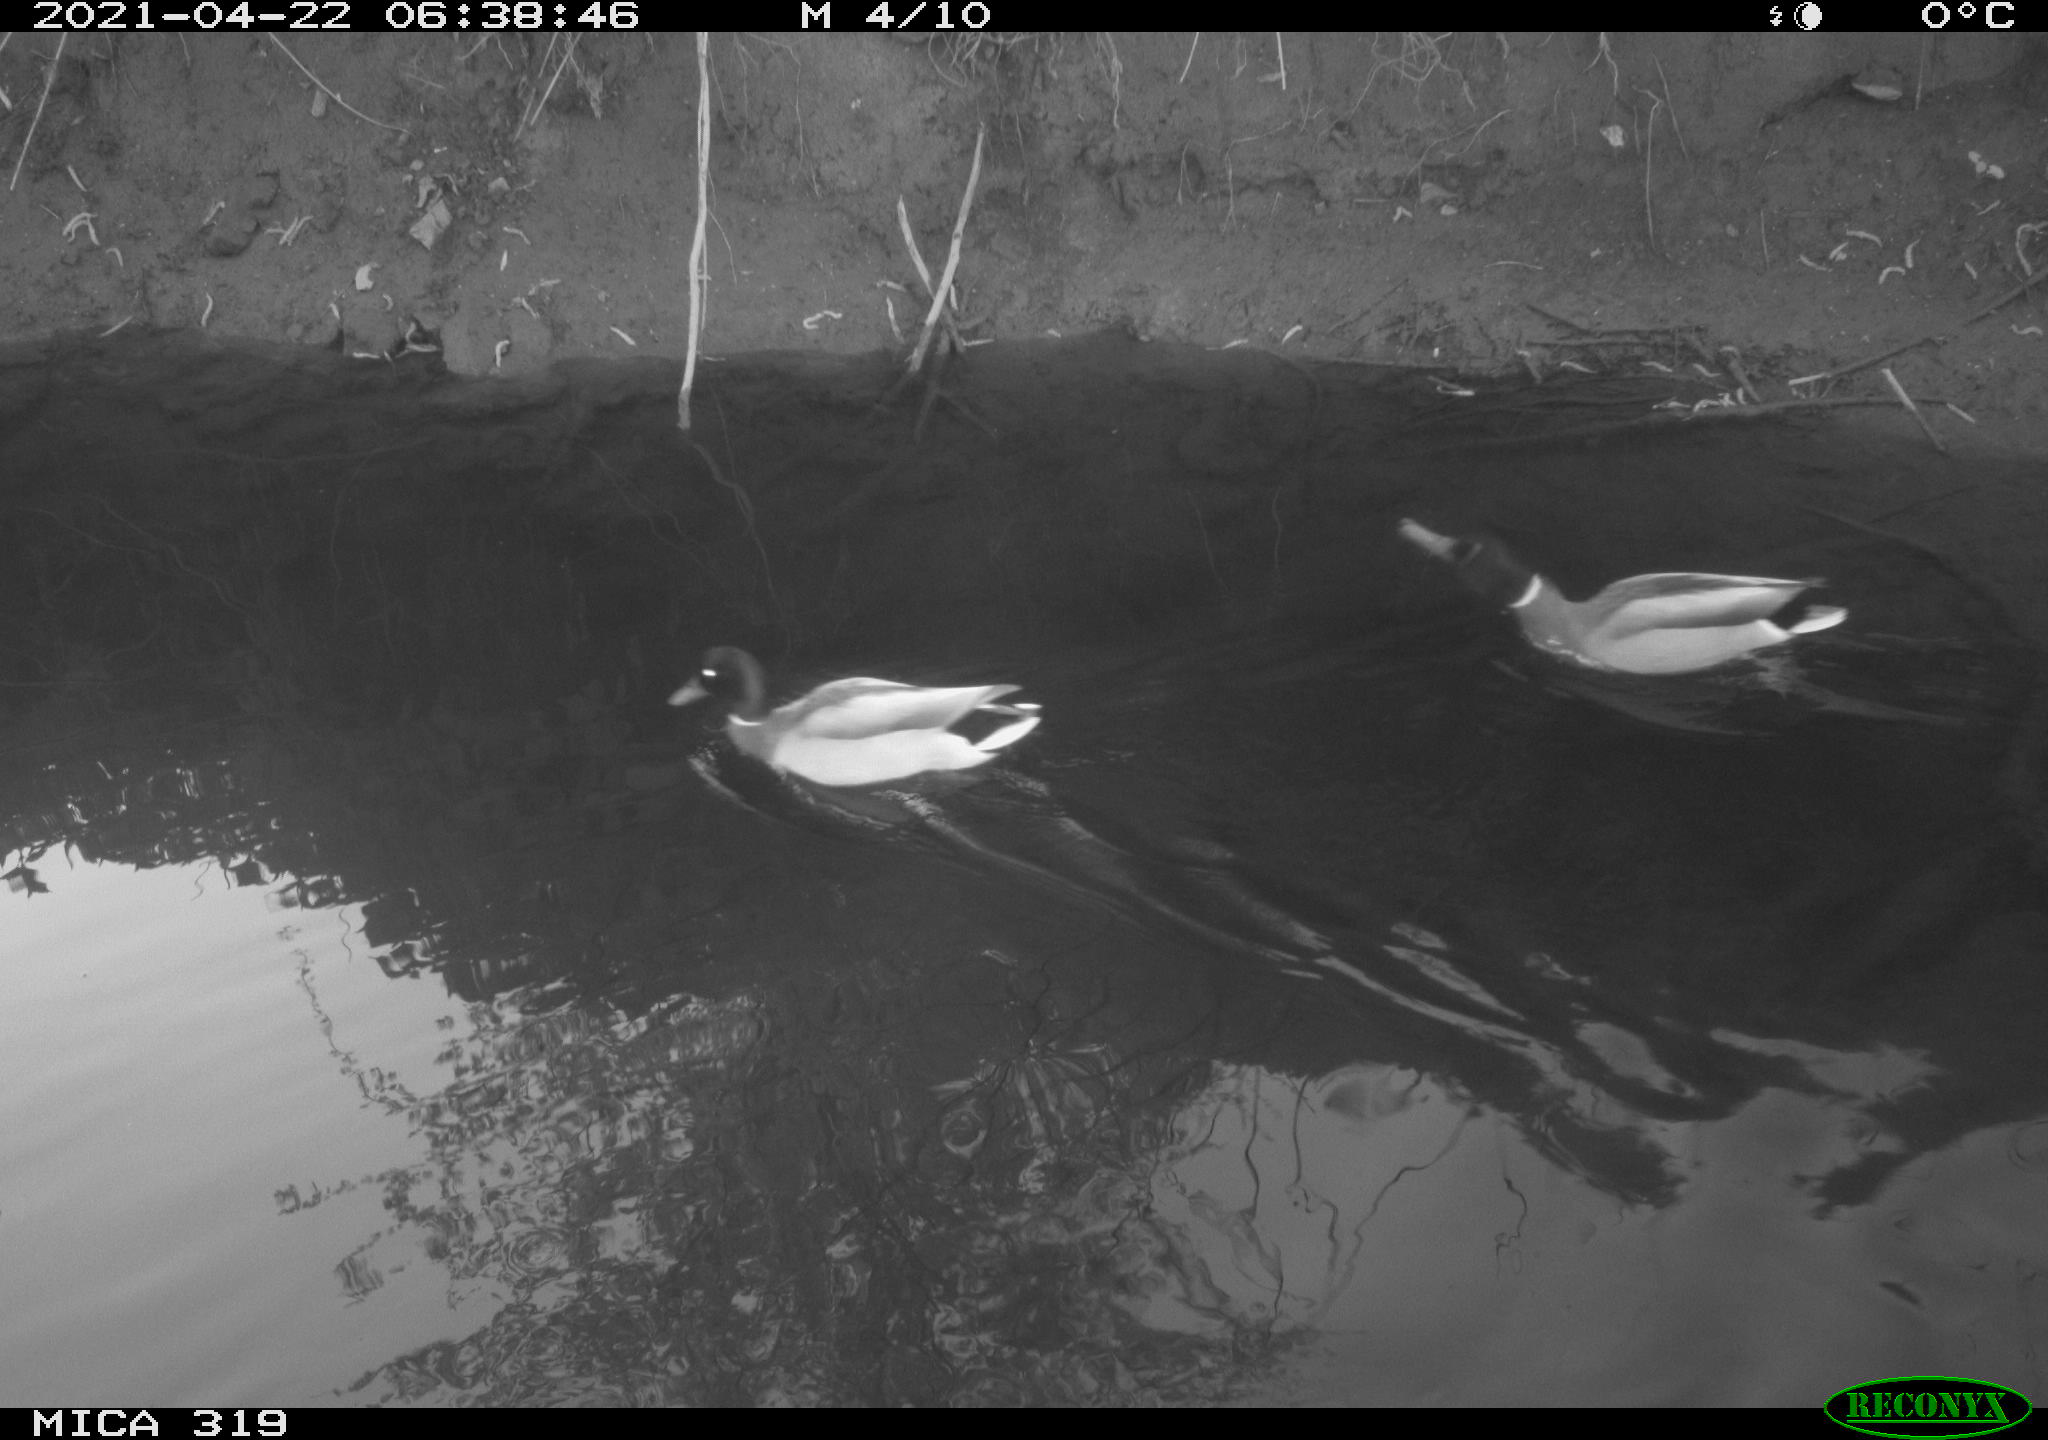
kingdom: Animalia
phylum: Chordata
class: Aves
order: Anseriformes
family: Anatidae
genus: Anas
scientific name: Anas platyrhynchos
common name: Mallard
